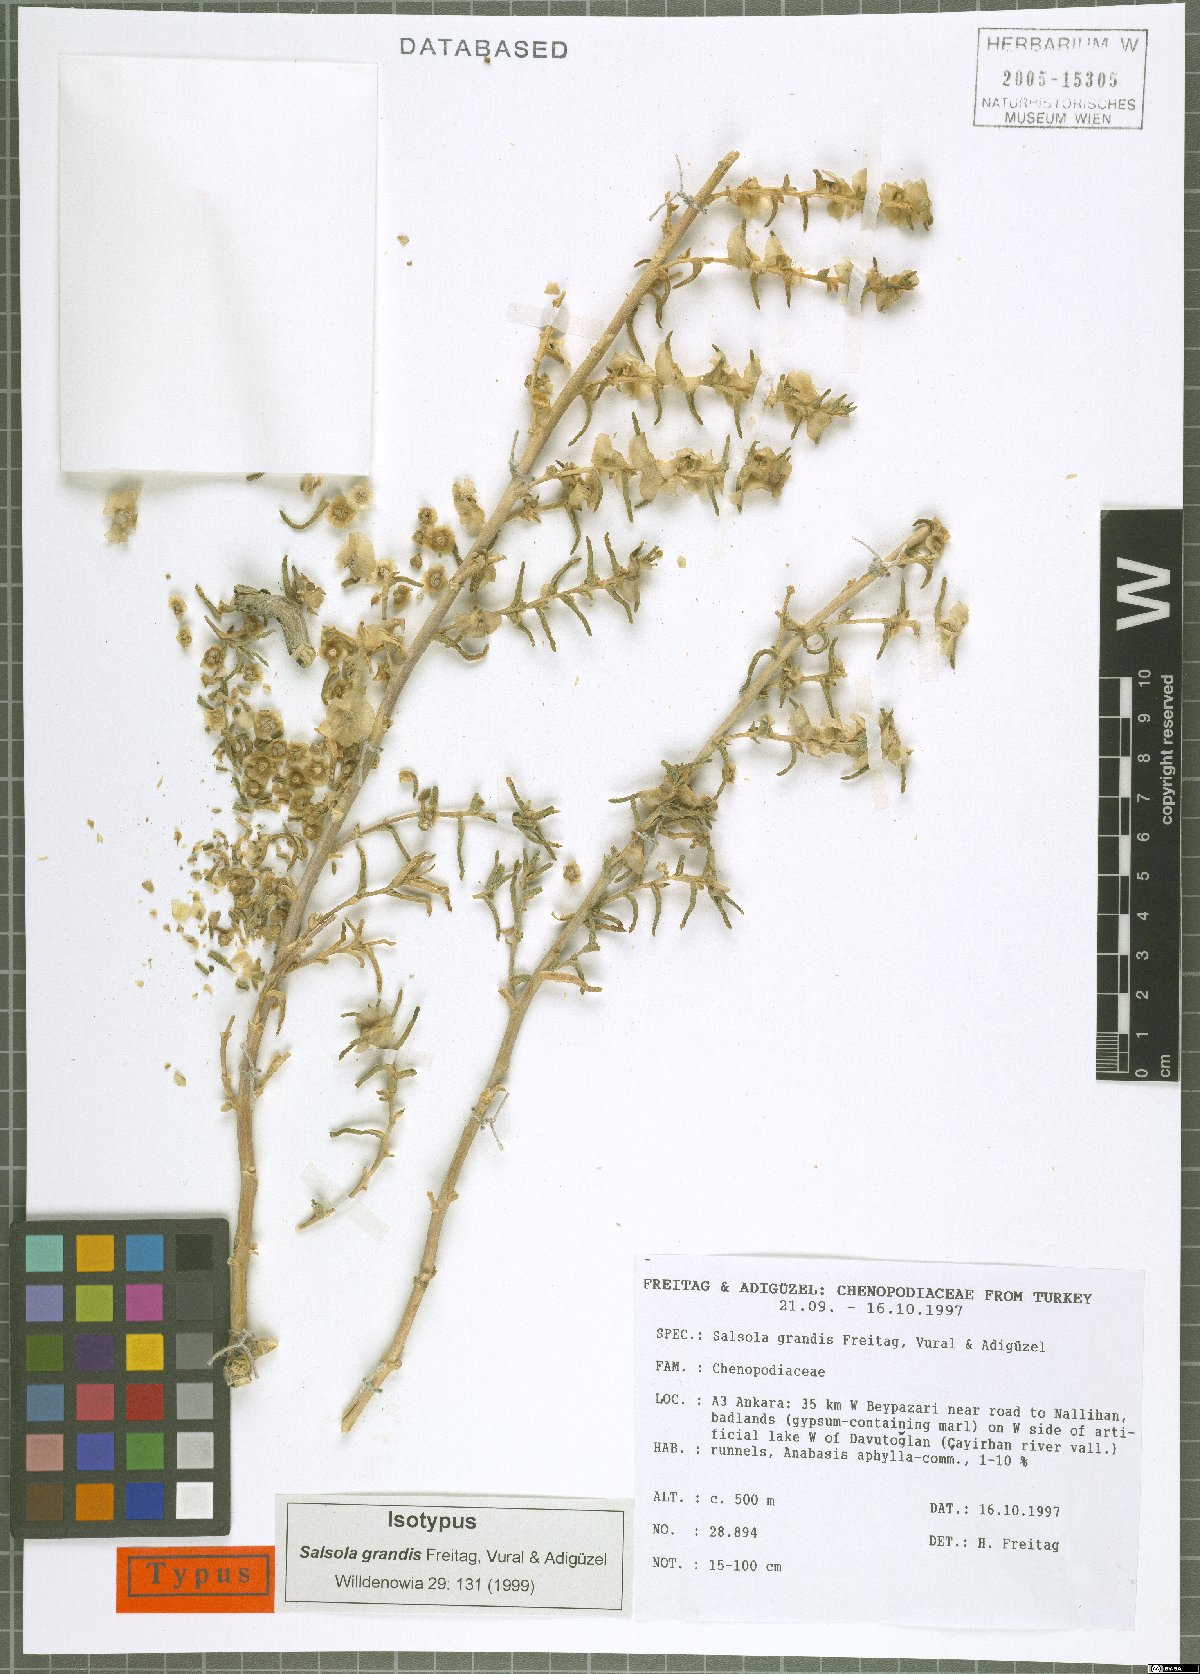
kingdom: Plantae
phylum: Tracheophyta
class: Magnoliopsida
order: Caryophyllales
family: Amaranthaceae
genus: Soda
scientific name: Soda grandis
